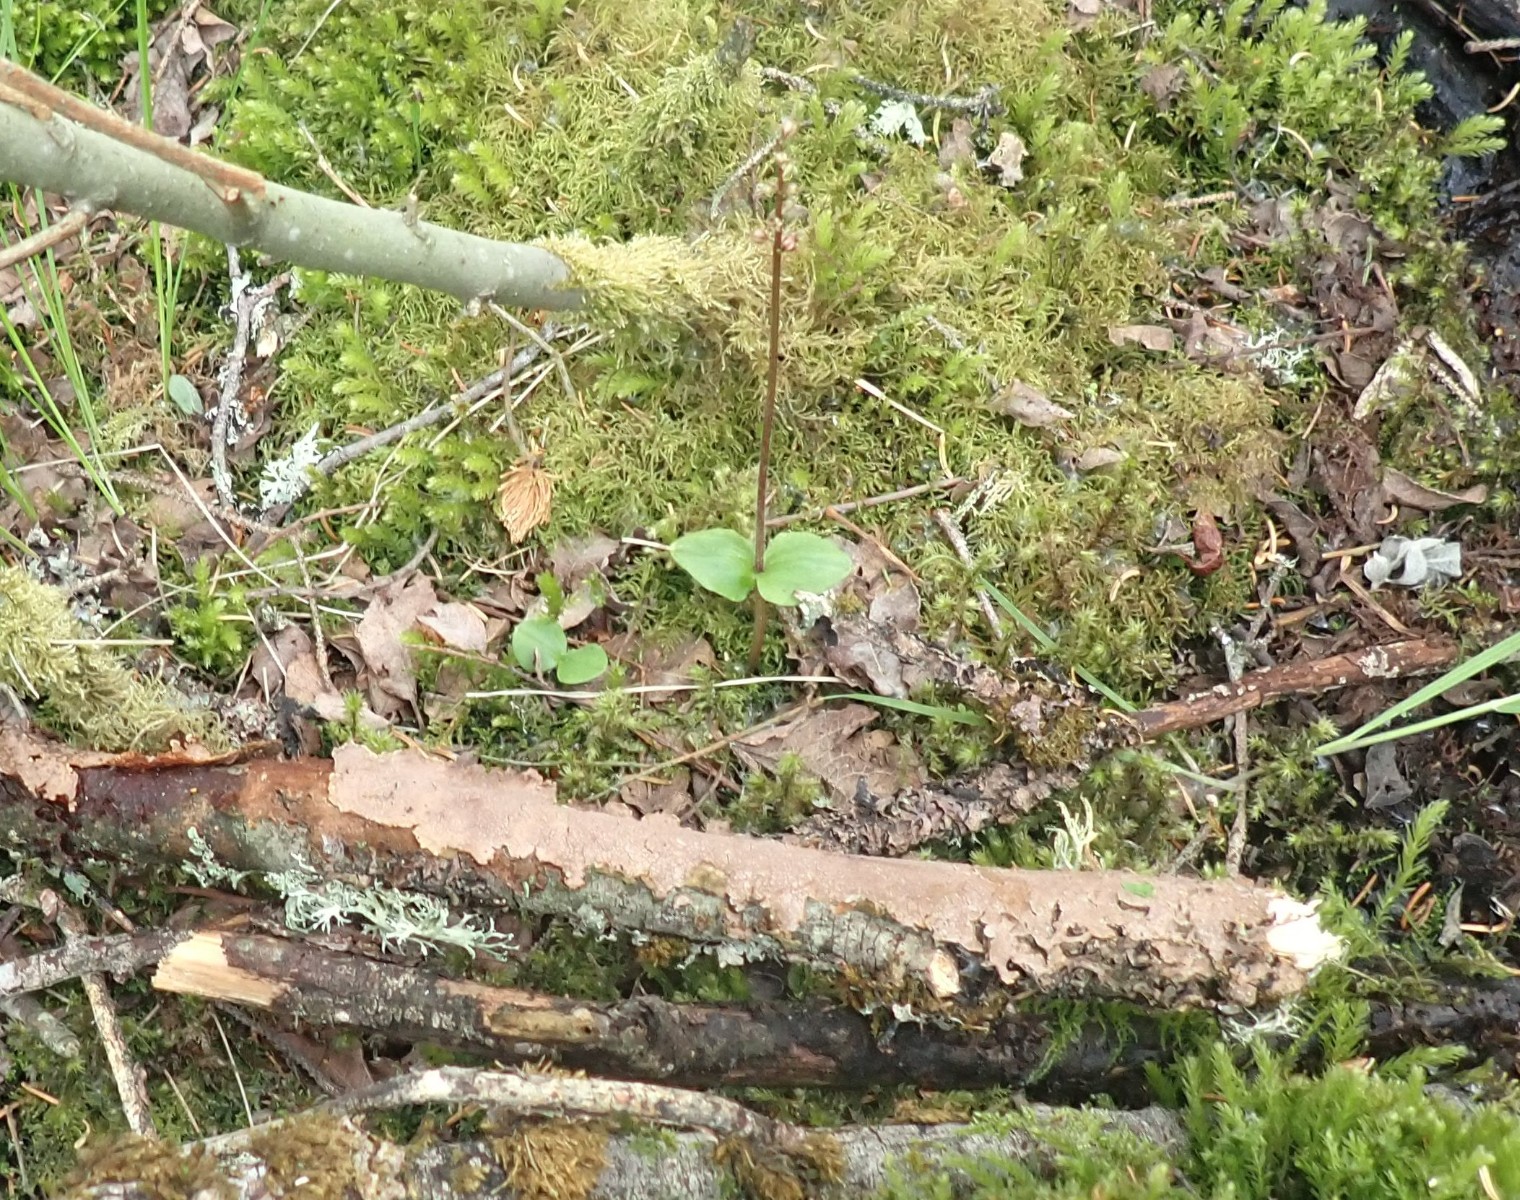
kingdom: Fungi
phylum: Basidiomycota
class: Agaricomycetes
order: Hymenochaetales
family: Hymenochaetaceae
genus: Hydnoporia
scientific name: Hydnoporia tabacina
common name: tobaksbrun ruslædersvamp
